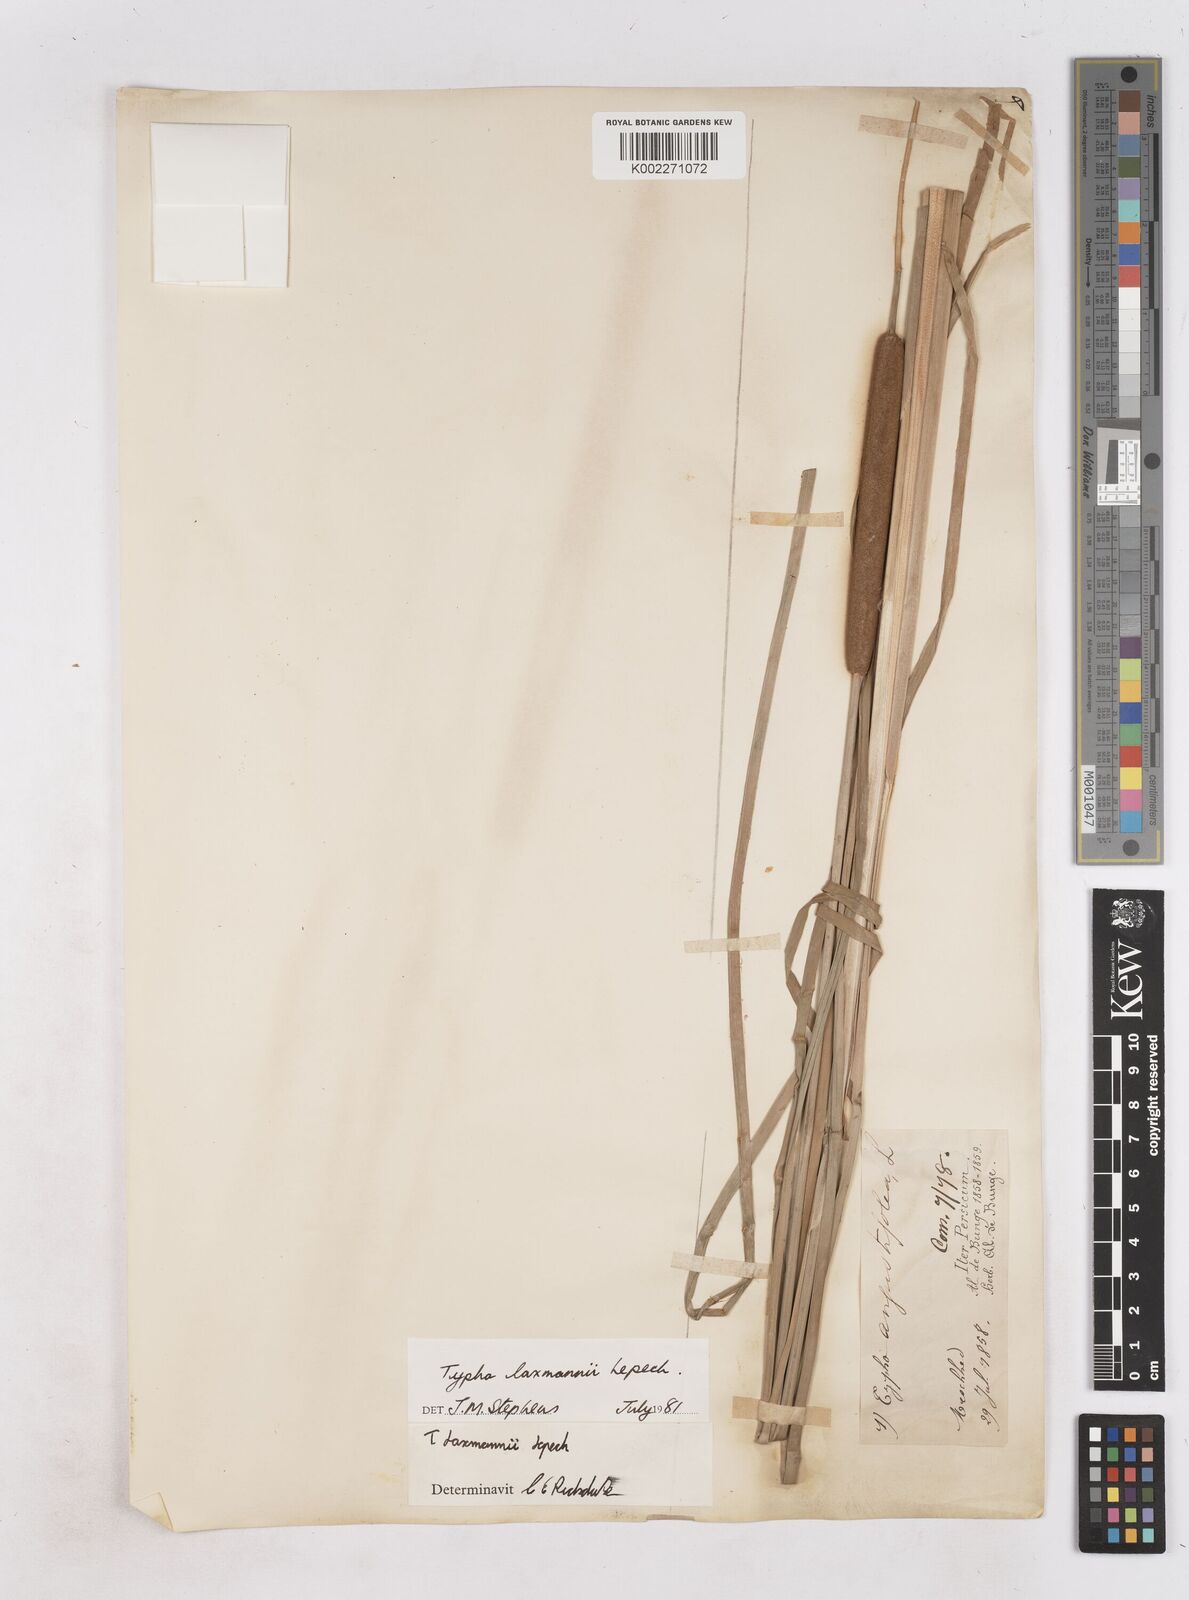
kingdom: Plantae
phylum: Tracheophyta
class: Liliopsida
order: Poales
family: Typhaceae
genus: Typha
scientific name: Typha laxmannii
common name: Laxman’s bulrush
